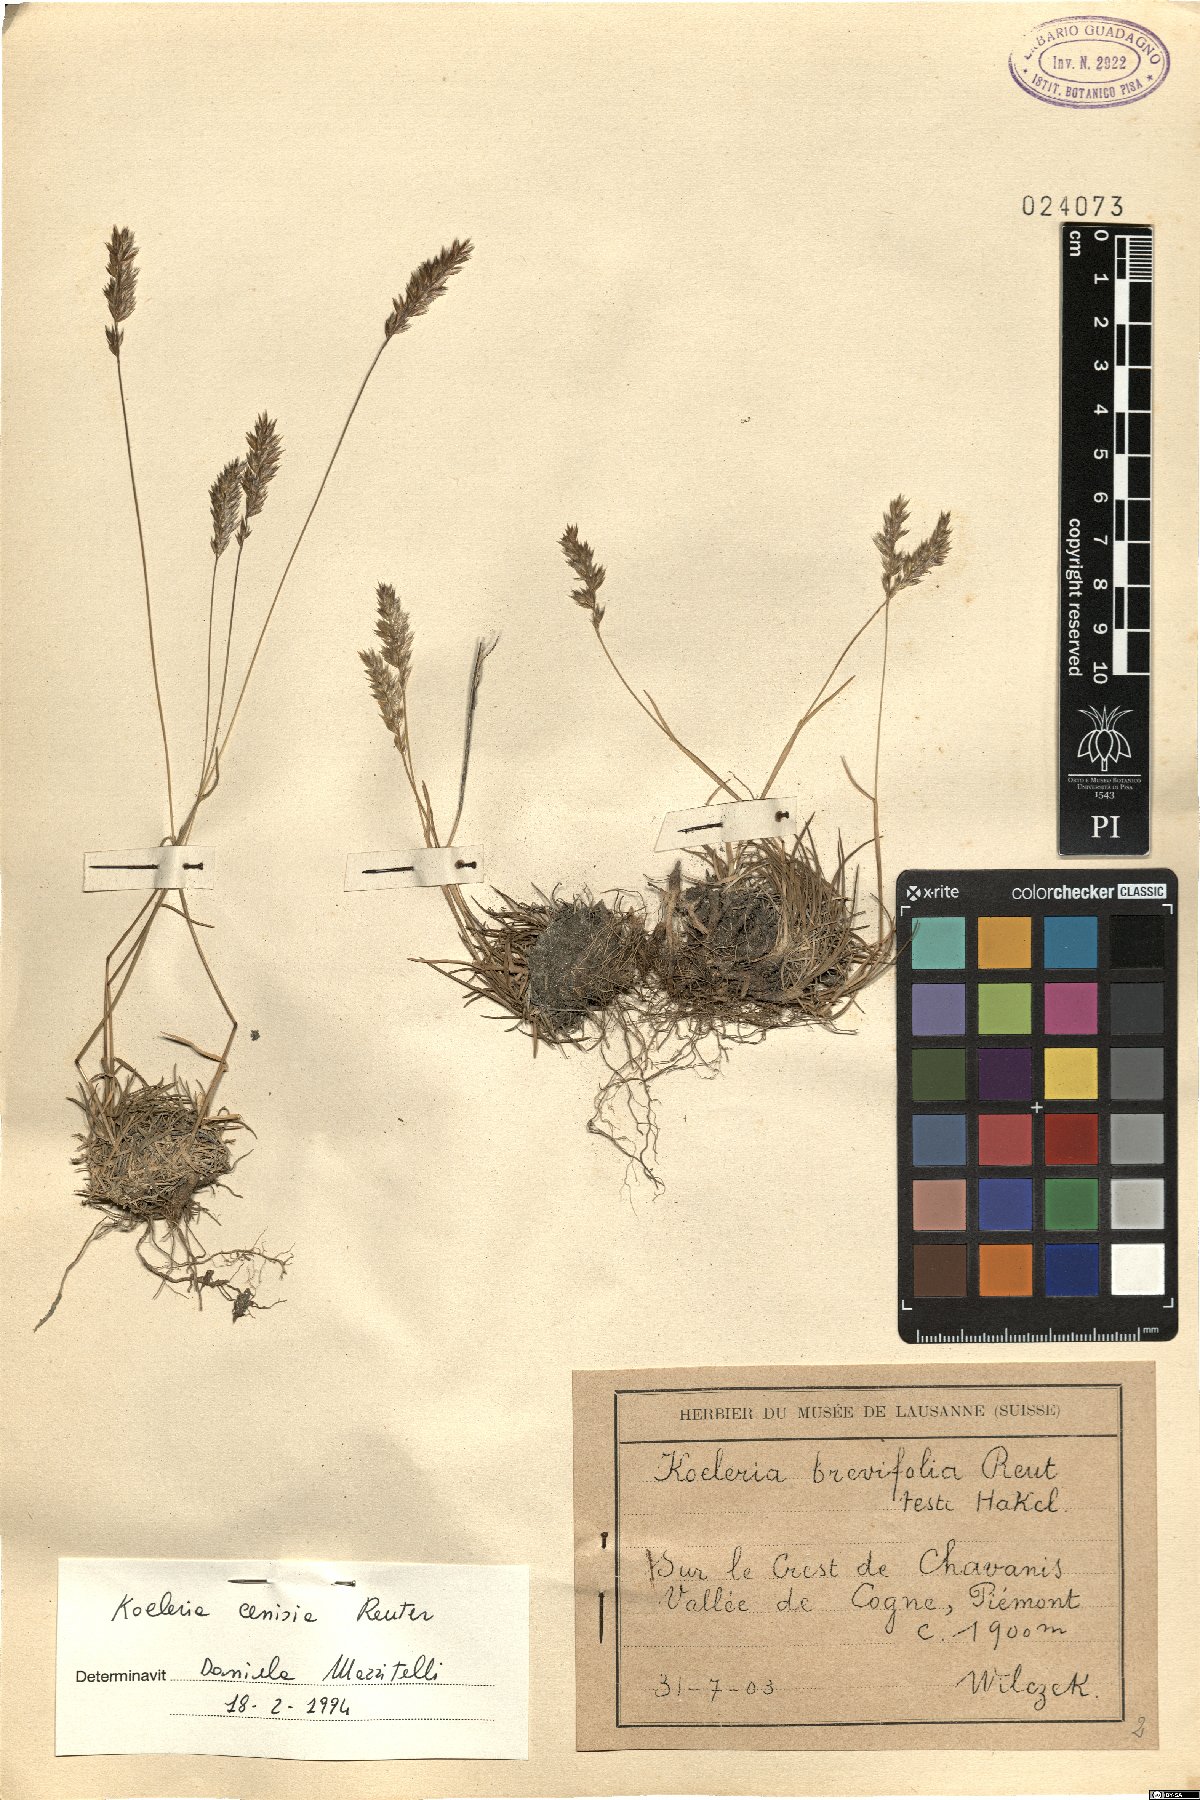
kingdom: Plantae
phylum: Tracheophyta
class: Liliopsida
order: Poales
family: Poaceae
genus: Koeleria
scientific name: Koeleria cenisia
